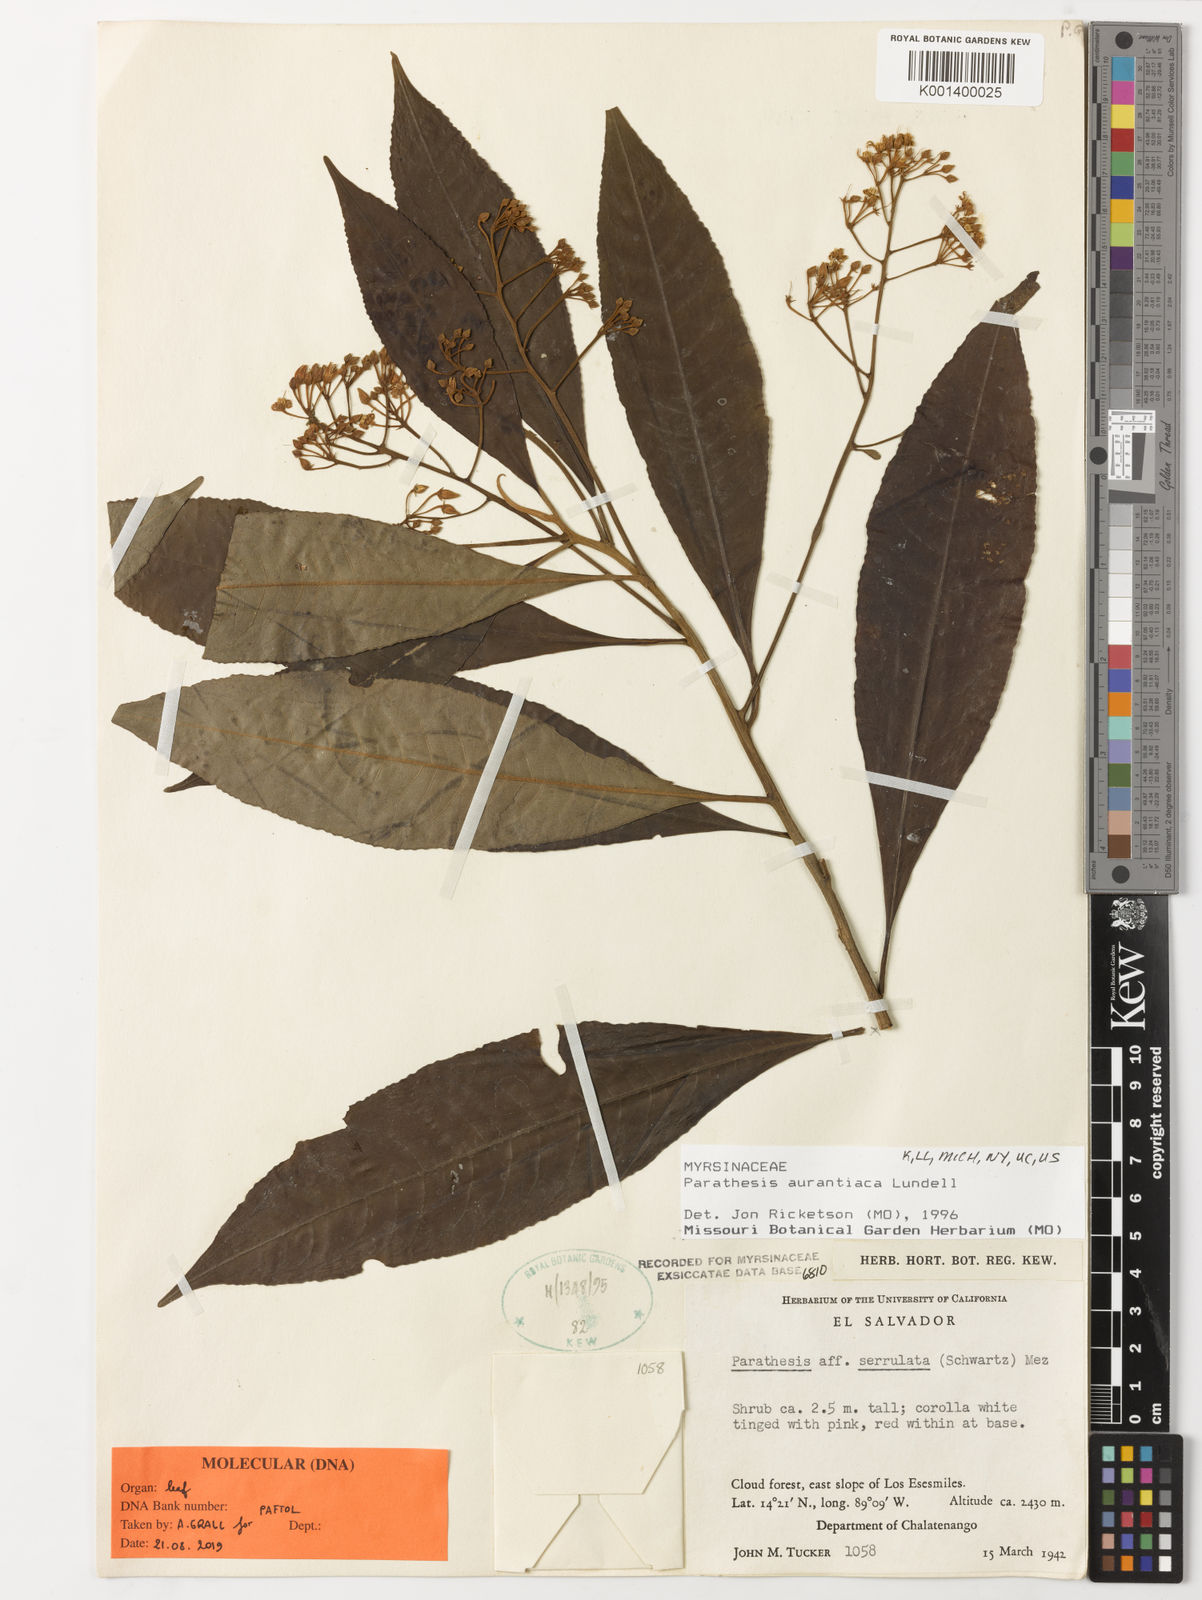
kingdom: Plantae
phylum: Tracheophyta
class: Magnoliopsida
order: Ericales
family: Primulaceae
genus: Parathesis
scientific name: Parathesis aurantiaca
